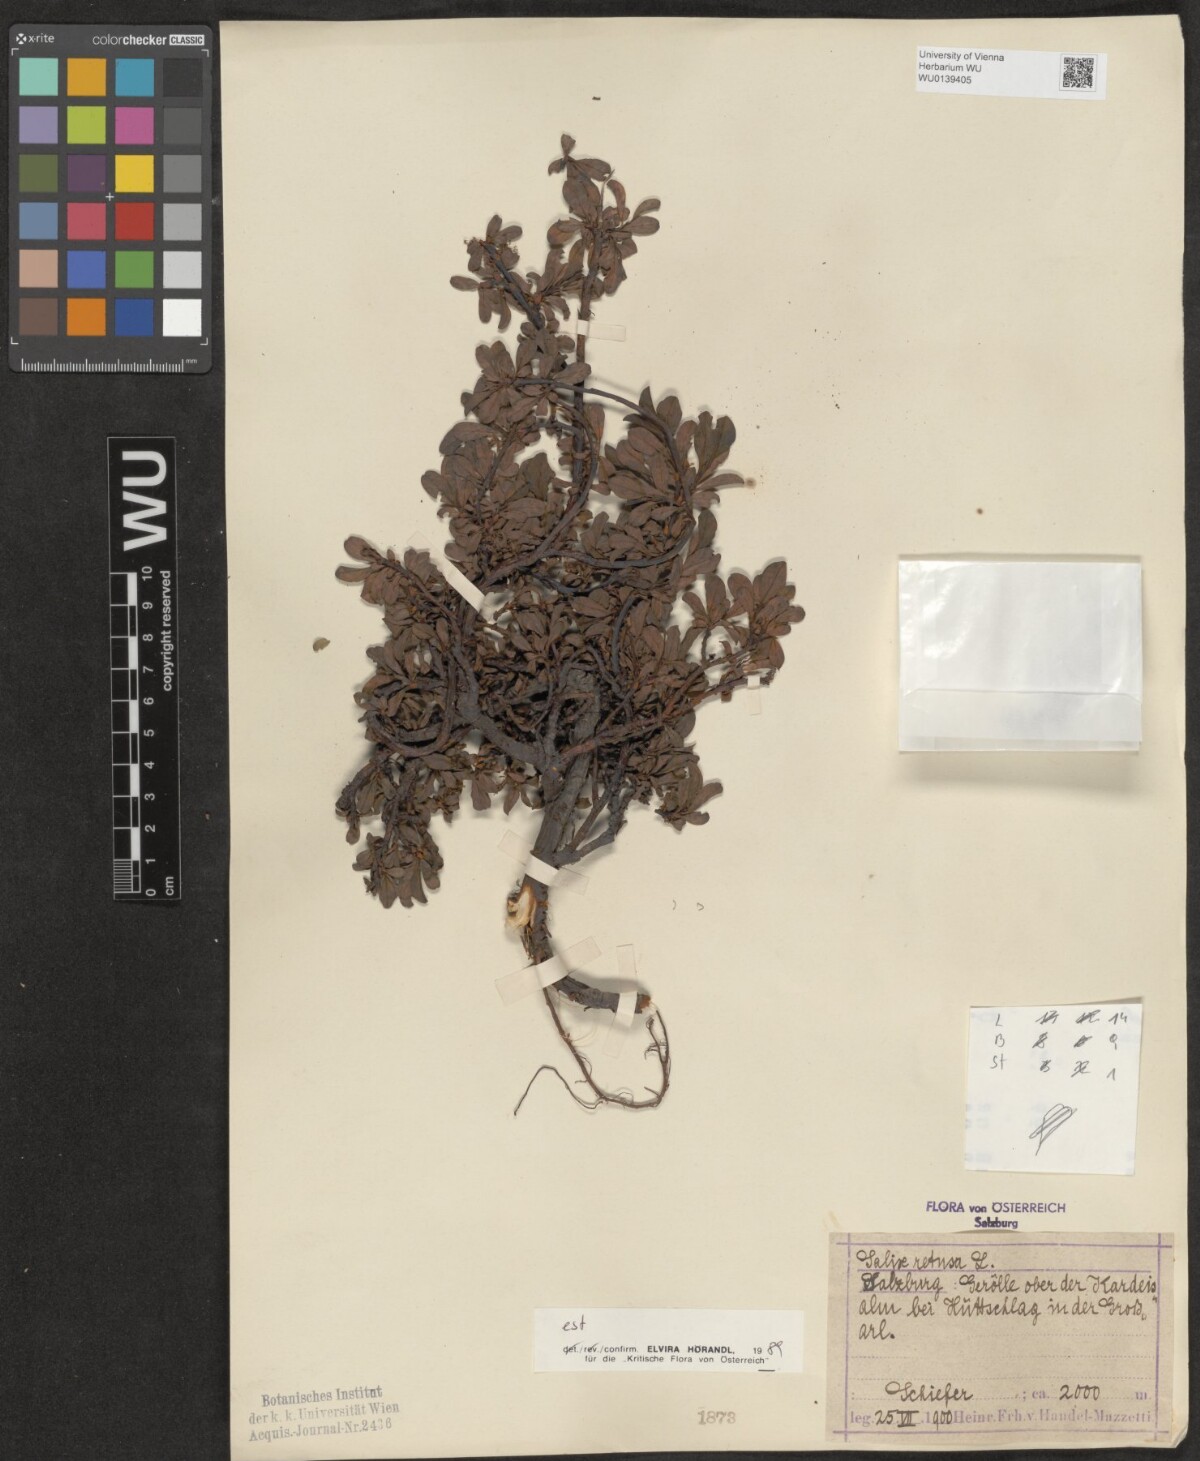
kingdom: Plantae
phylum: Tracheophyta
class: Magnoliopsida
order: Malpighiales
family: Salicaceae
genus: Salix
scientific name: Salix retusa
